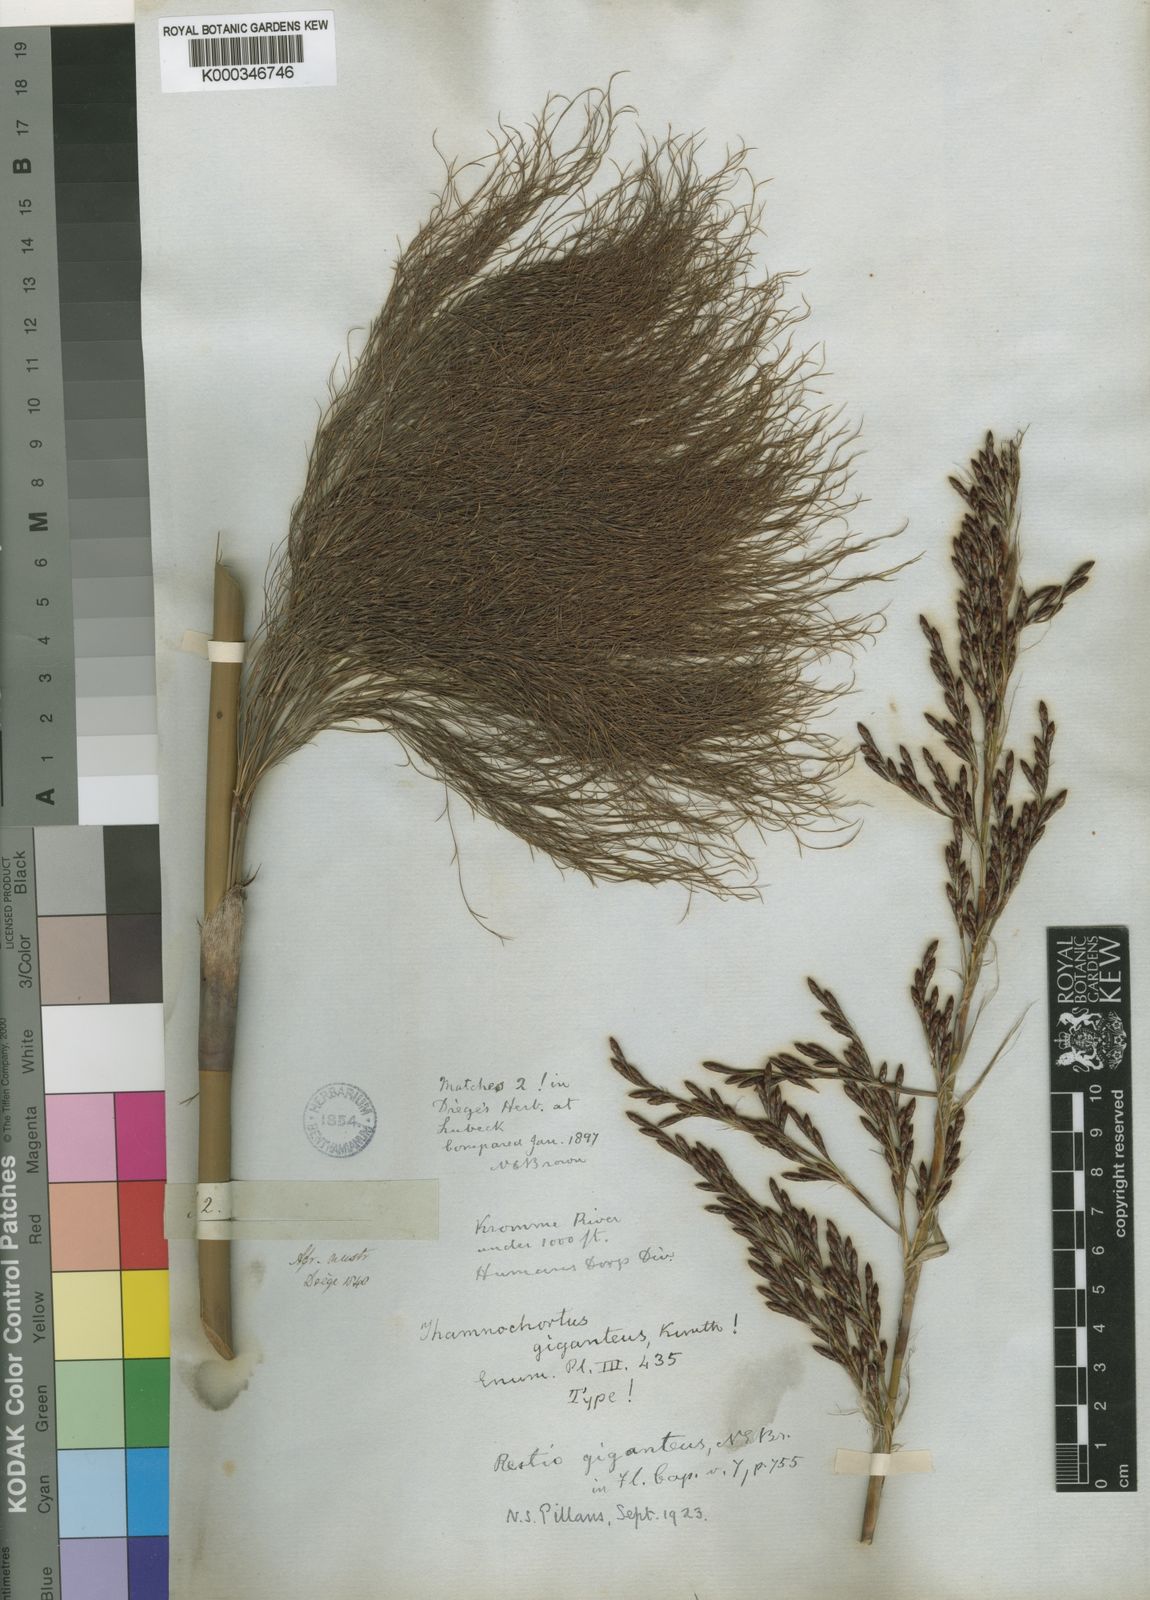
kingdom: Plantae
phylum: Tracheophyta
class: Liliopsida
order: Poales
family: Restionaceae
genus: Rhodocoma
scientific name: Rhodocoma gigantea
